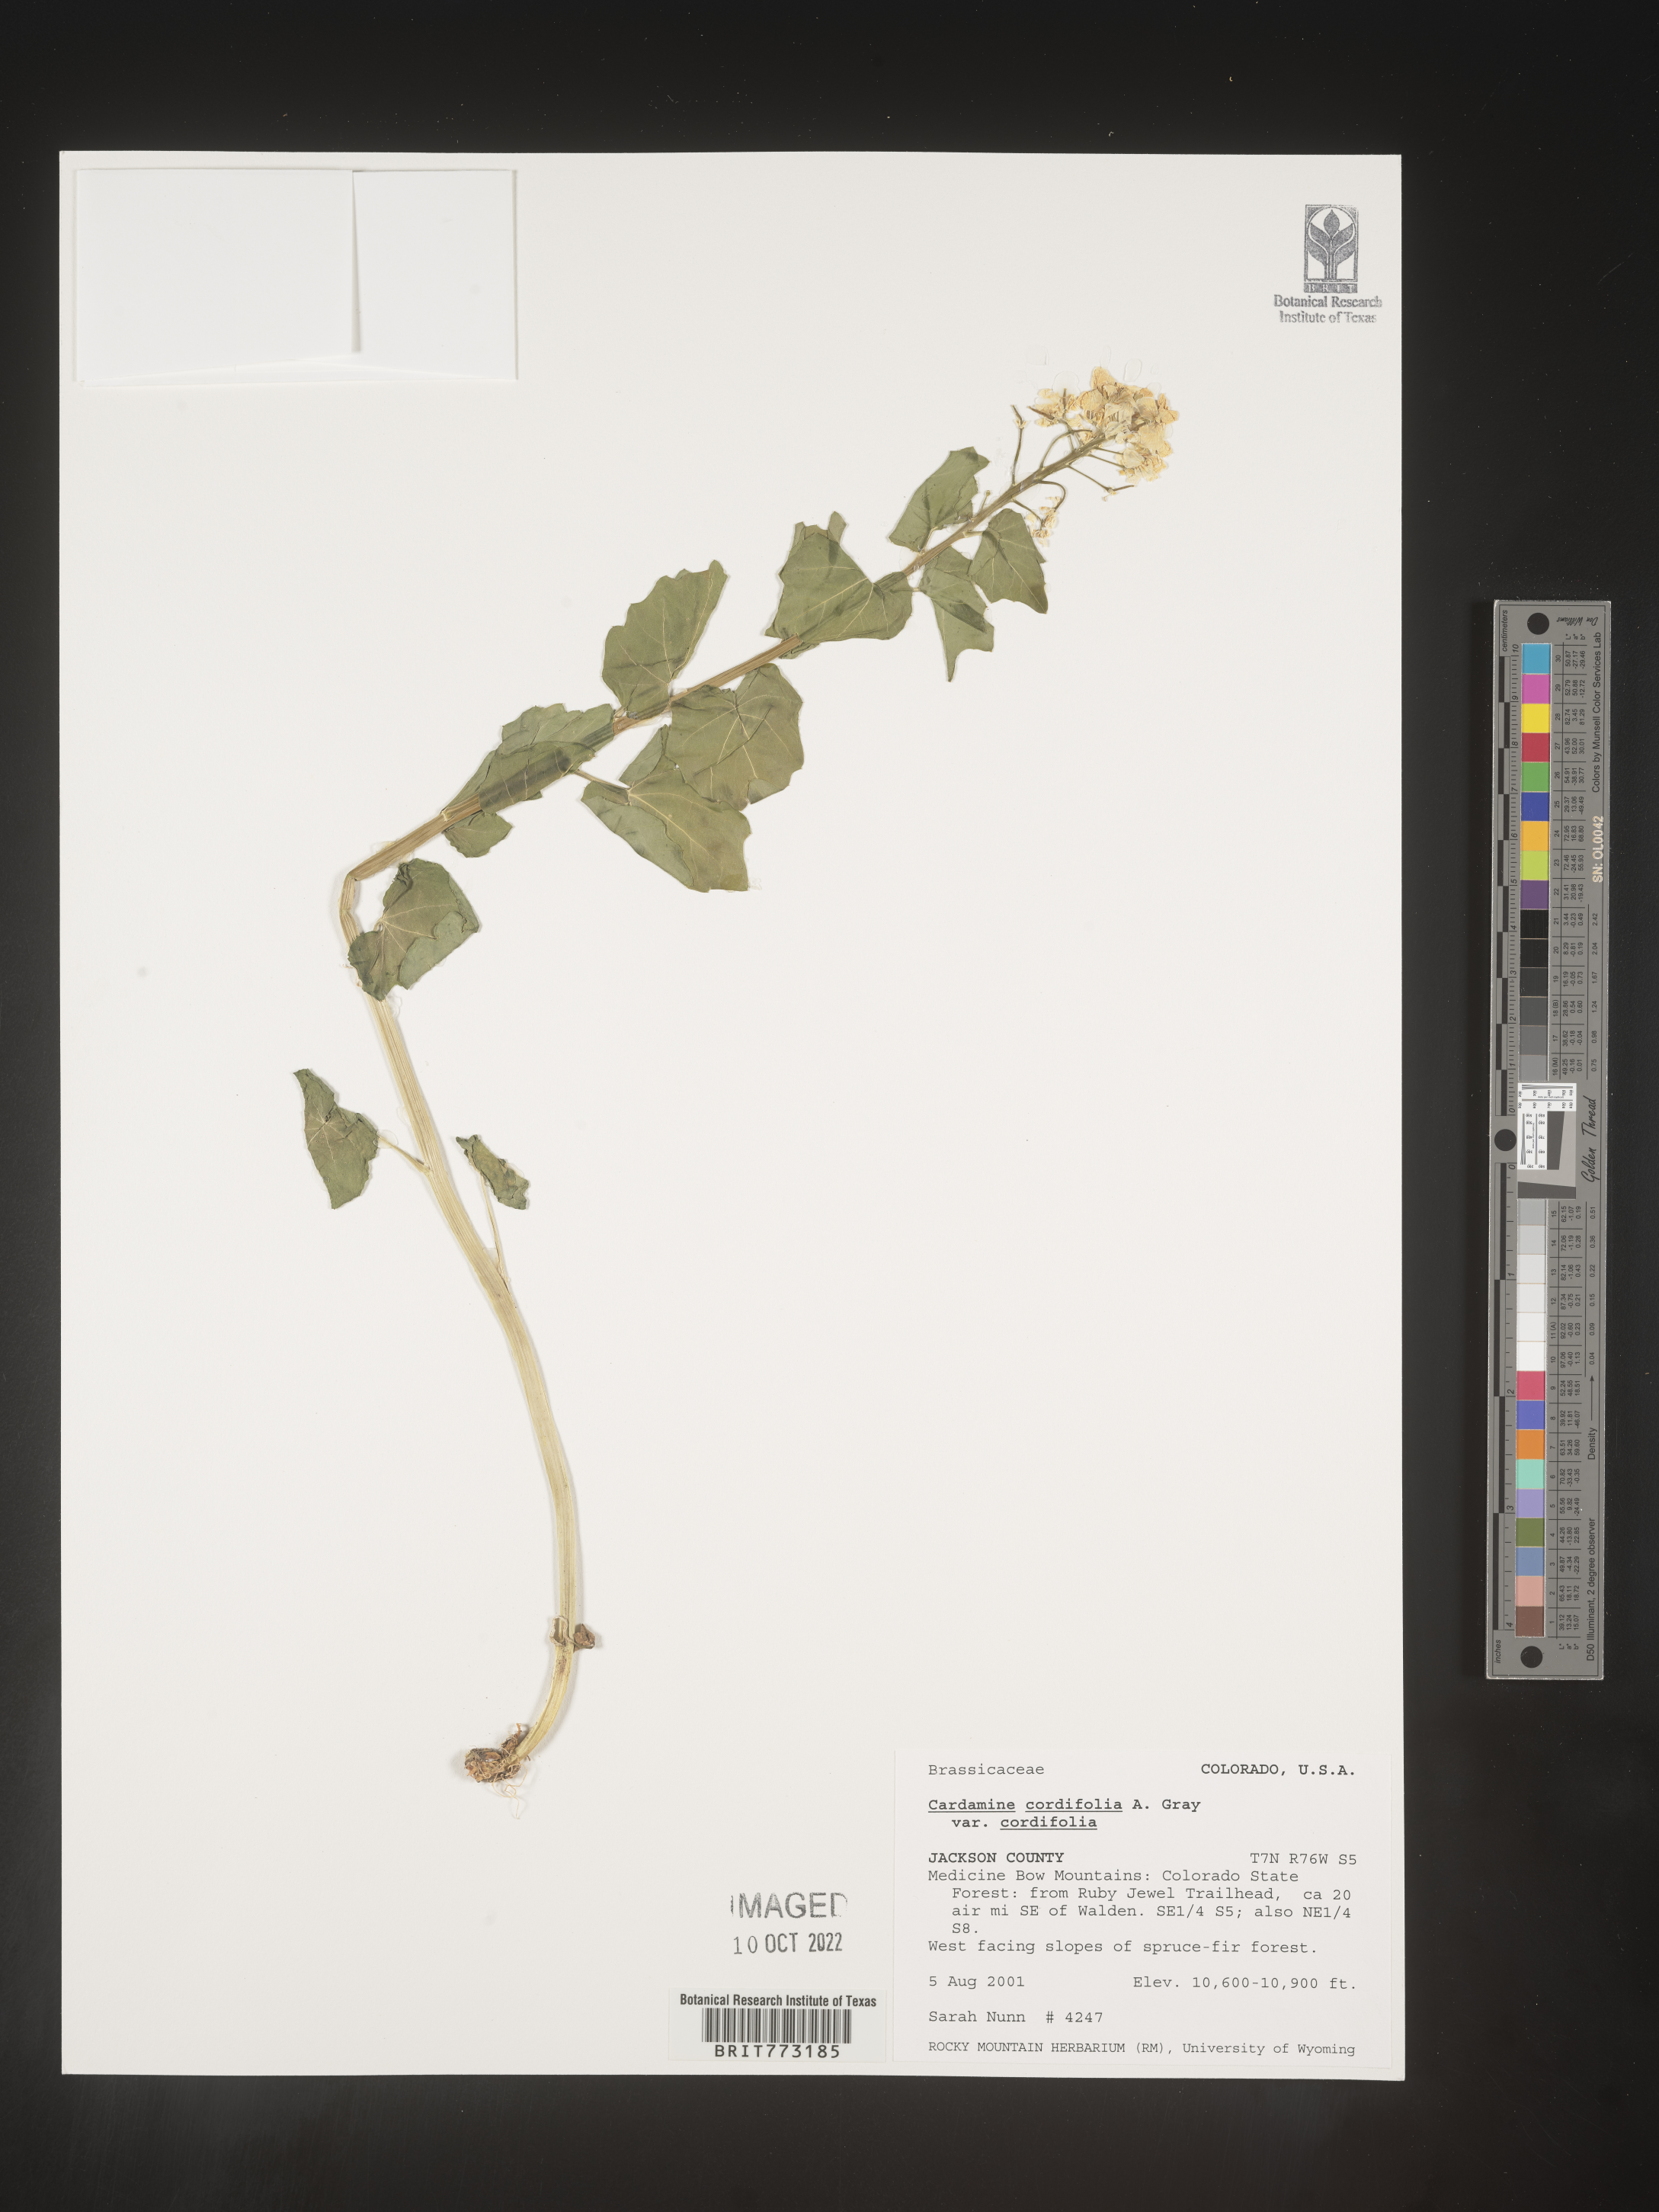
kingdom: Plantae
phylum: Tracheophyta
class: Magnoliopsida
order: Brassicales
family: Brassicaceae
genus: Cardamine
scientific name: Cardamine
